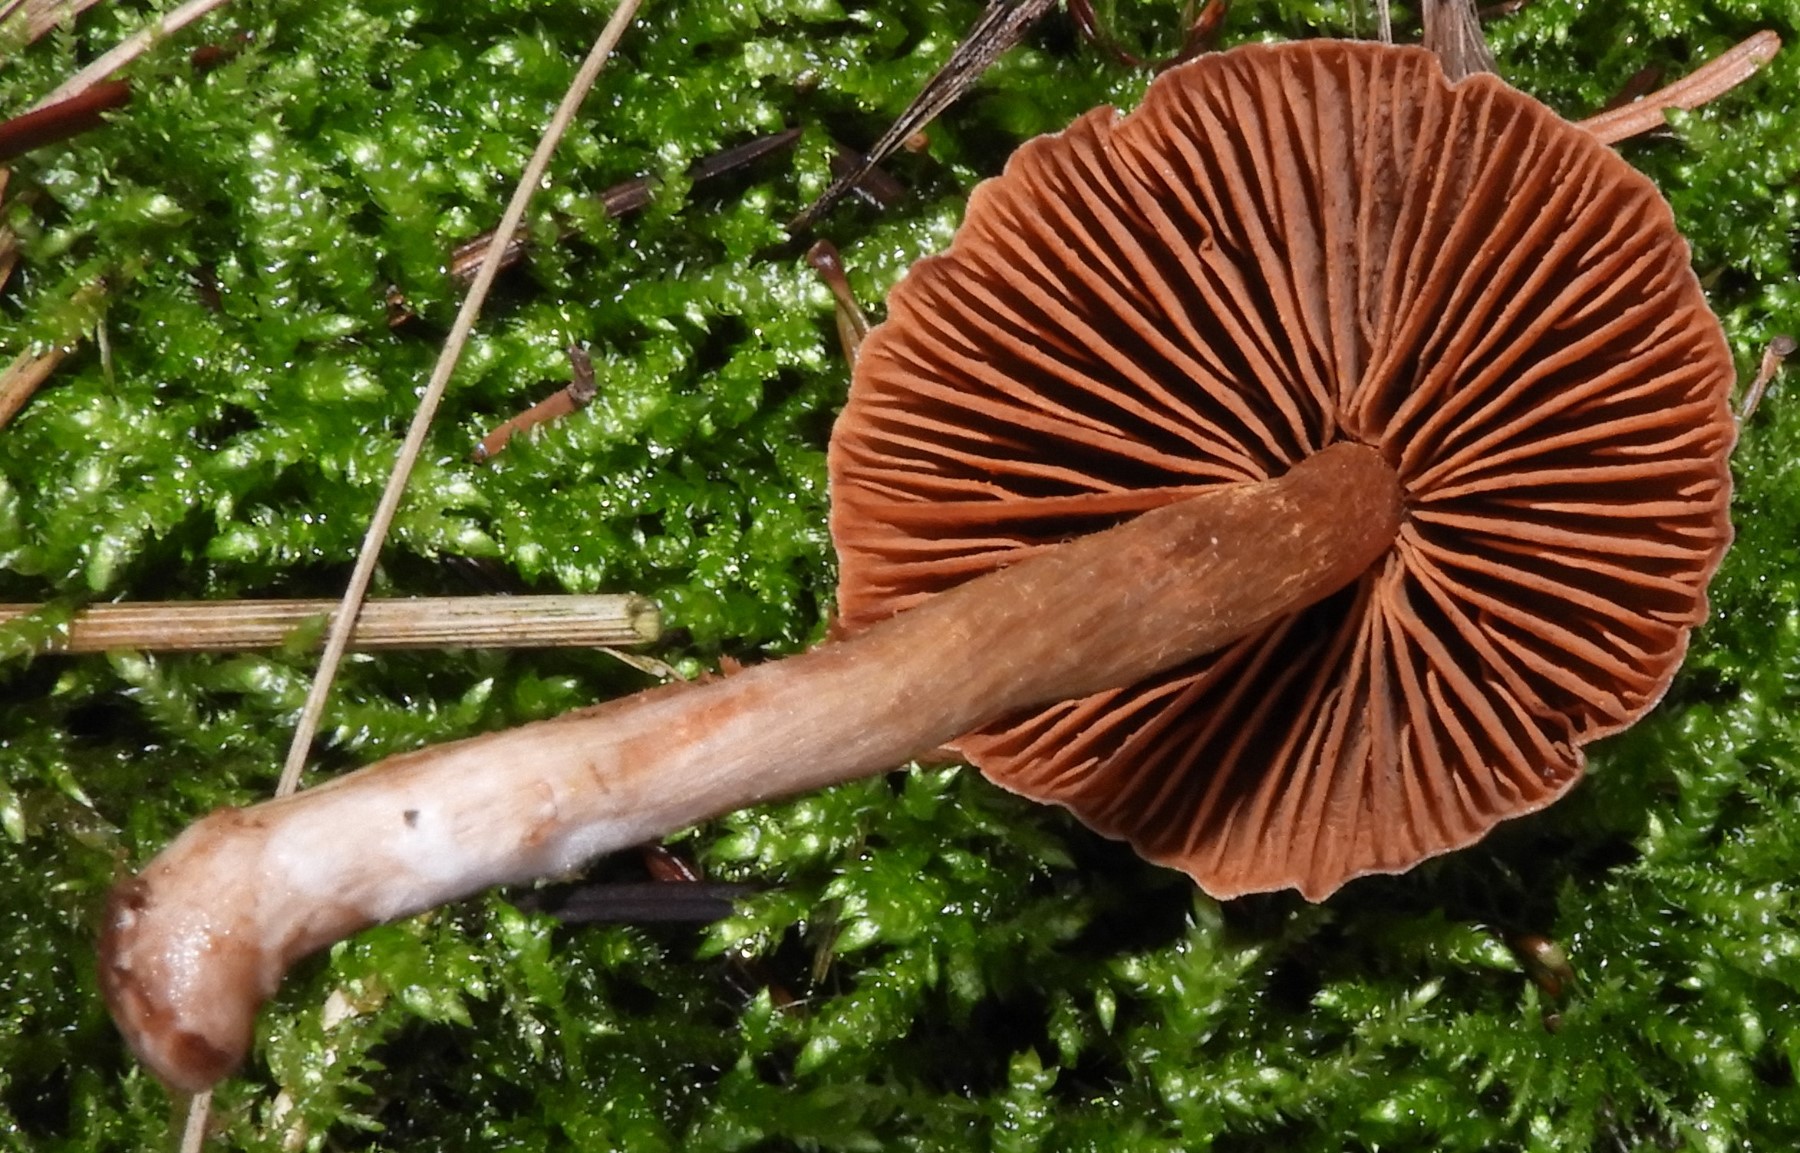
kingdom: Fungi
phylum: Basidiomycota
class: Agaricomycetes
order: Agaricales
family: Cortinariaceae
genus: Cortinarius
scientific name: Cortinarius
